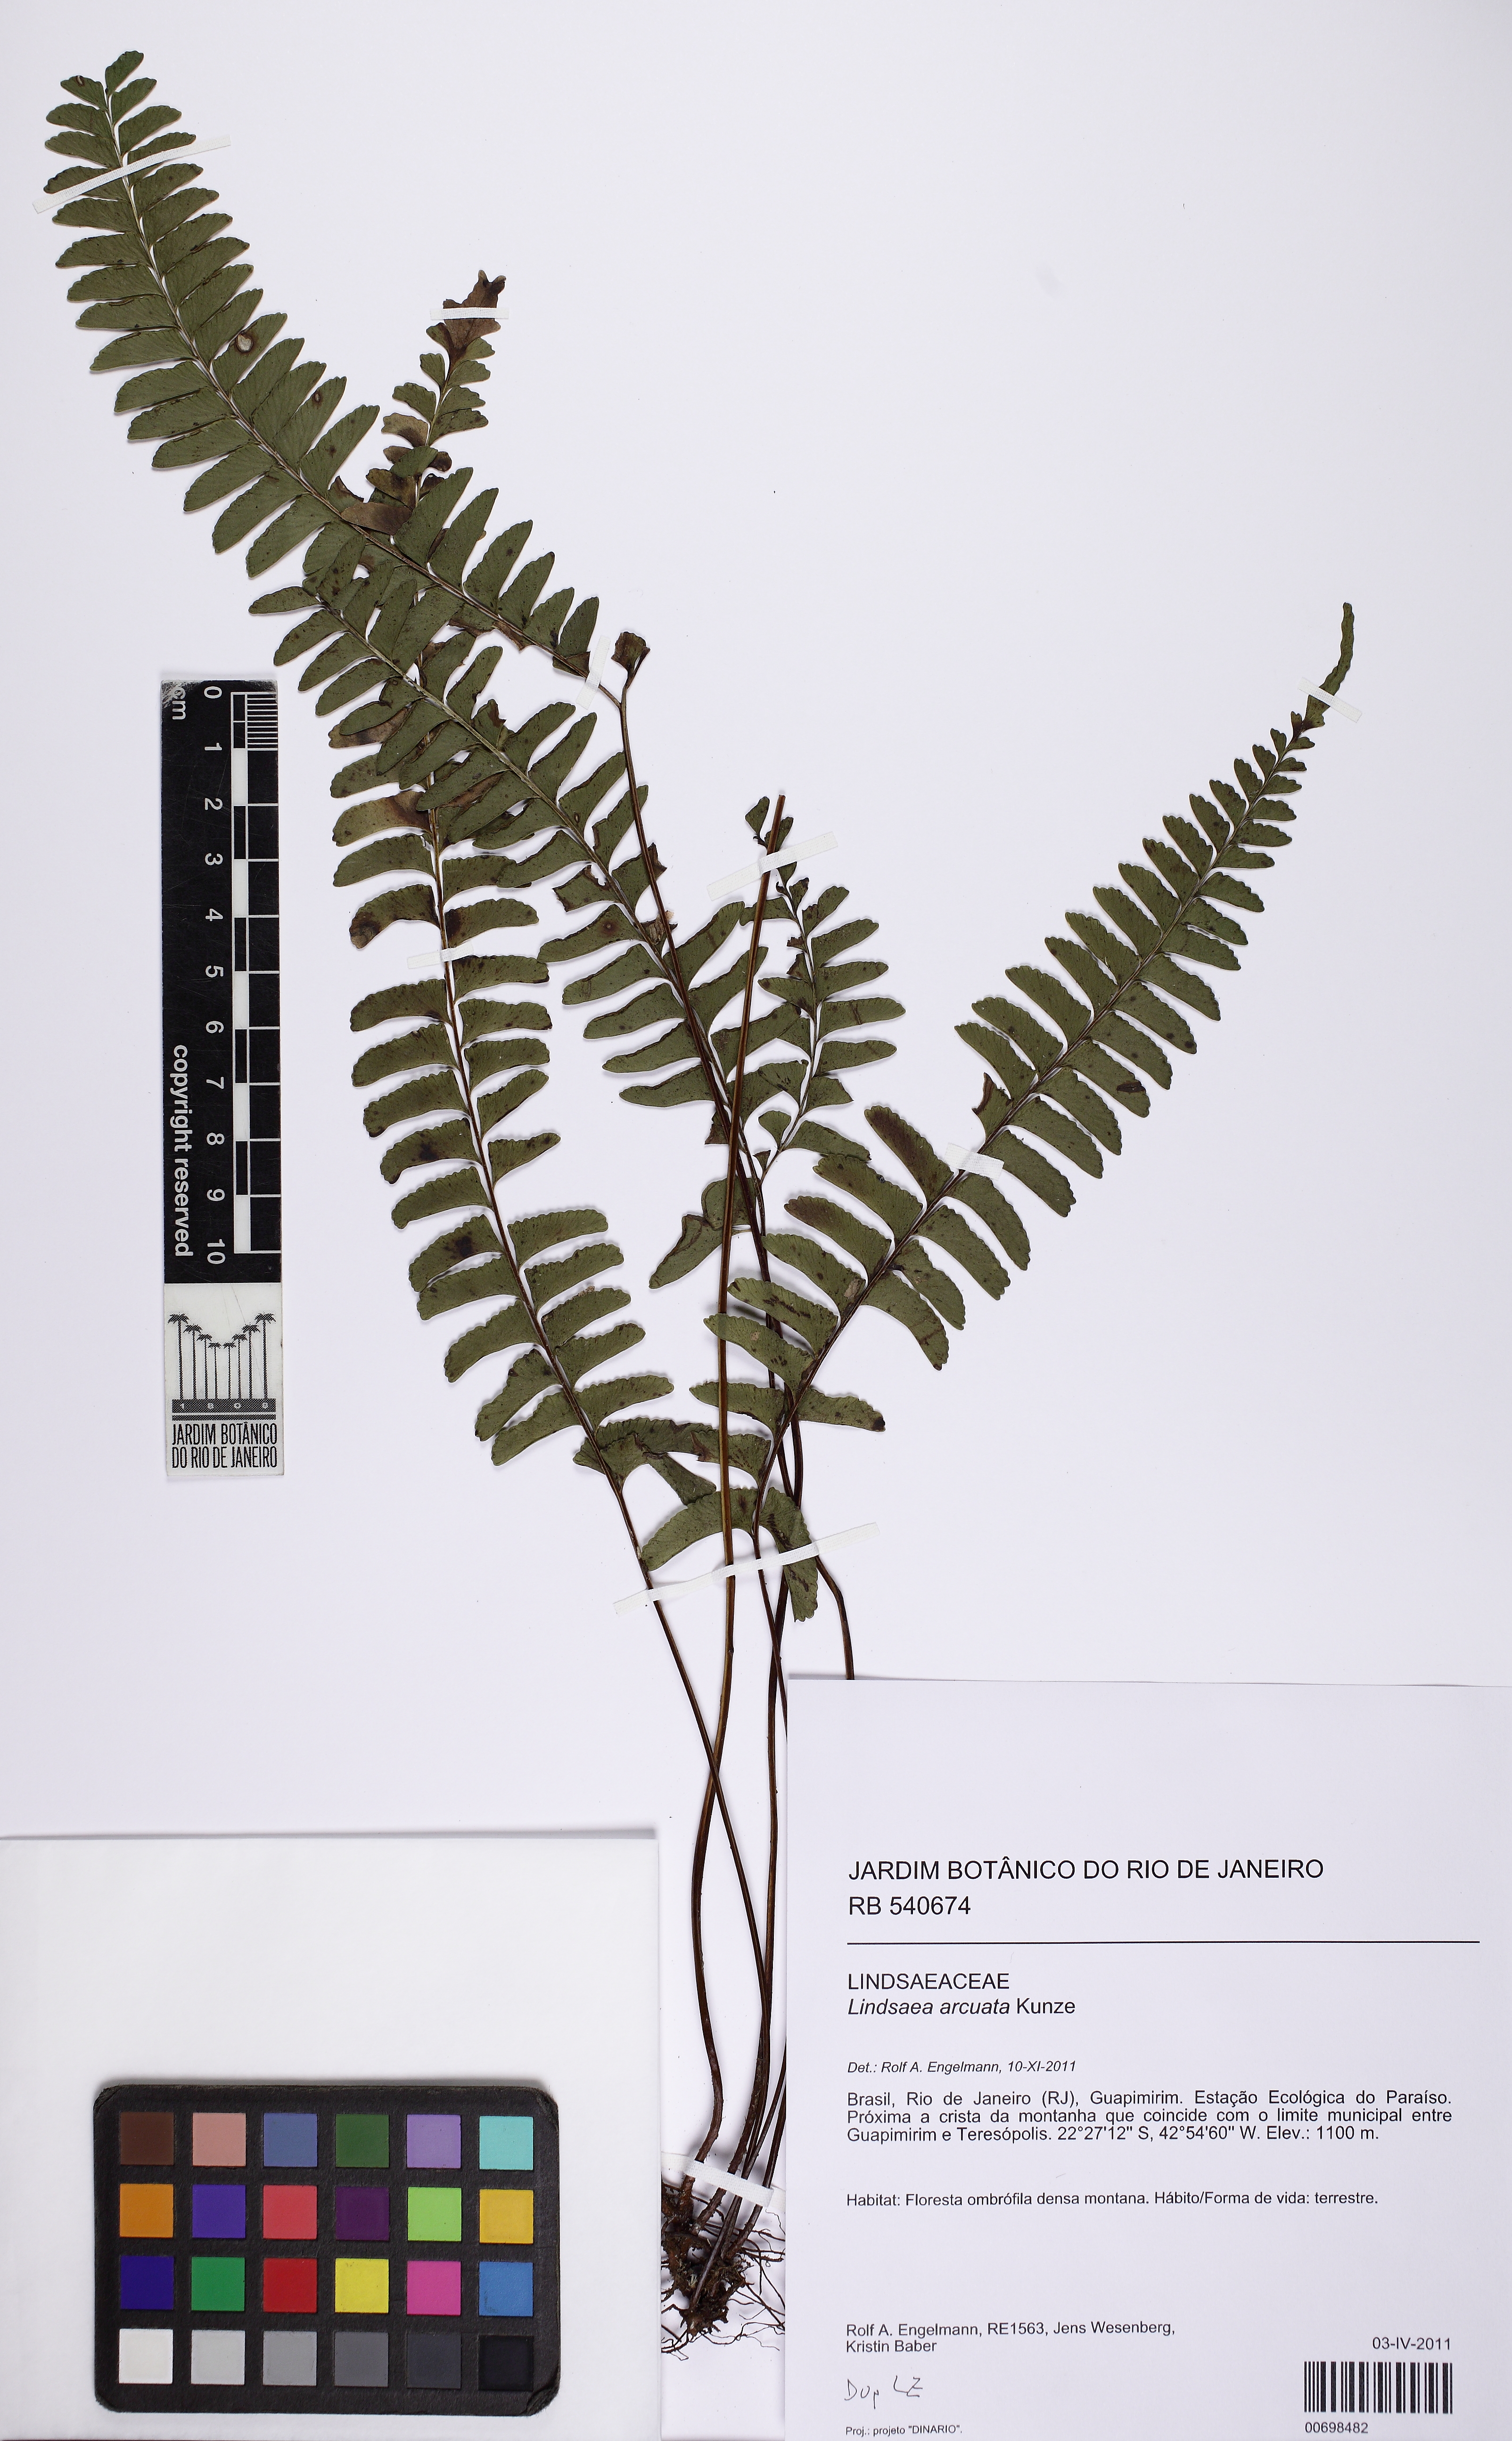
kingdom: Plantae
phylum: Tracheophyta
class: Polypodiopsida
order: Polypodiales
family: Lindsaeaceae
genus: Lindsaea
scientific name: Lindsaea arcuata
